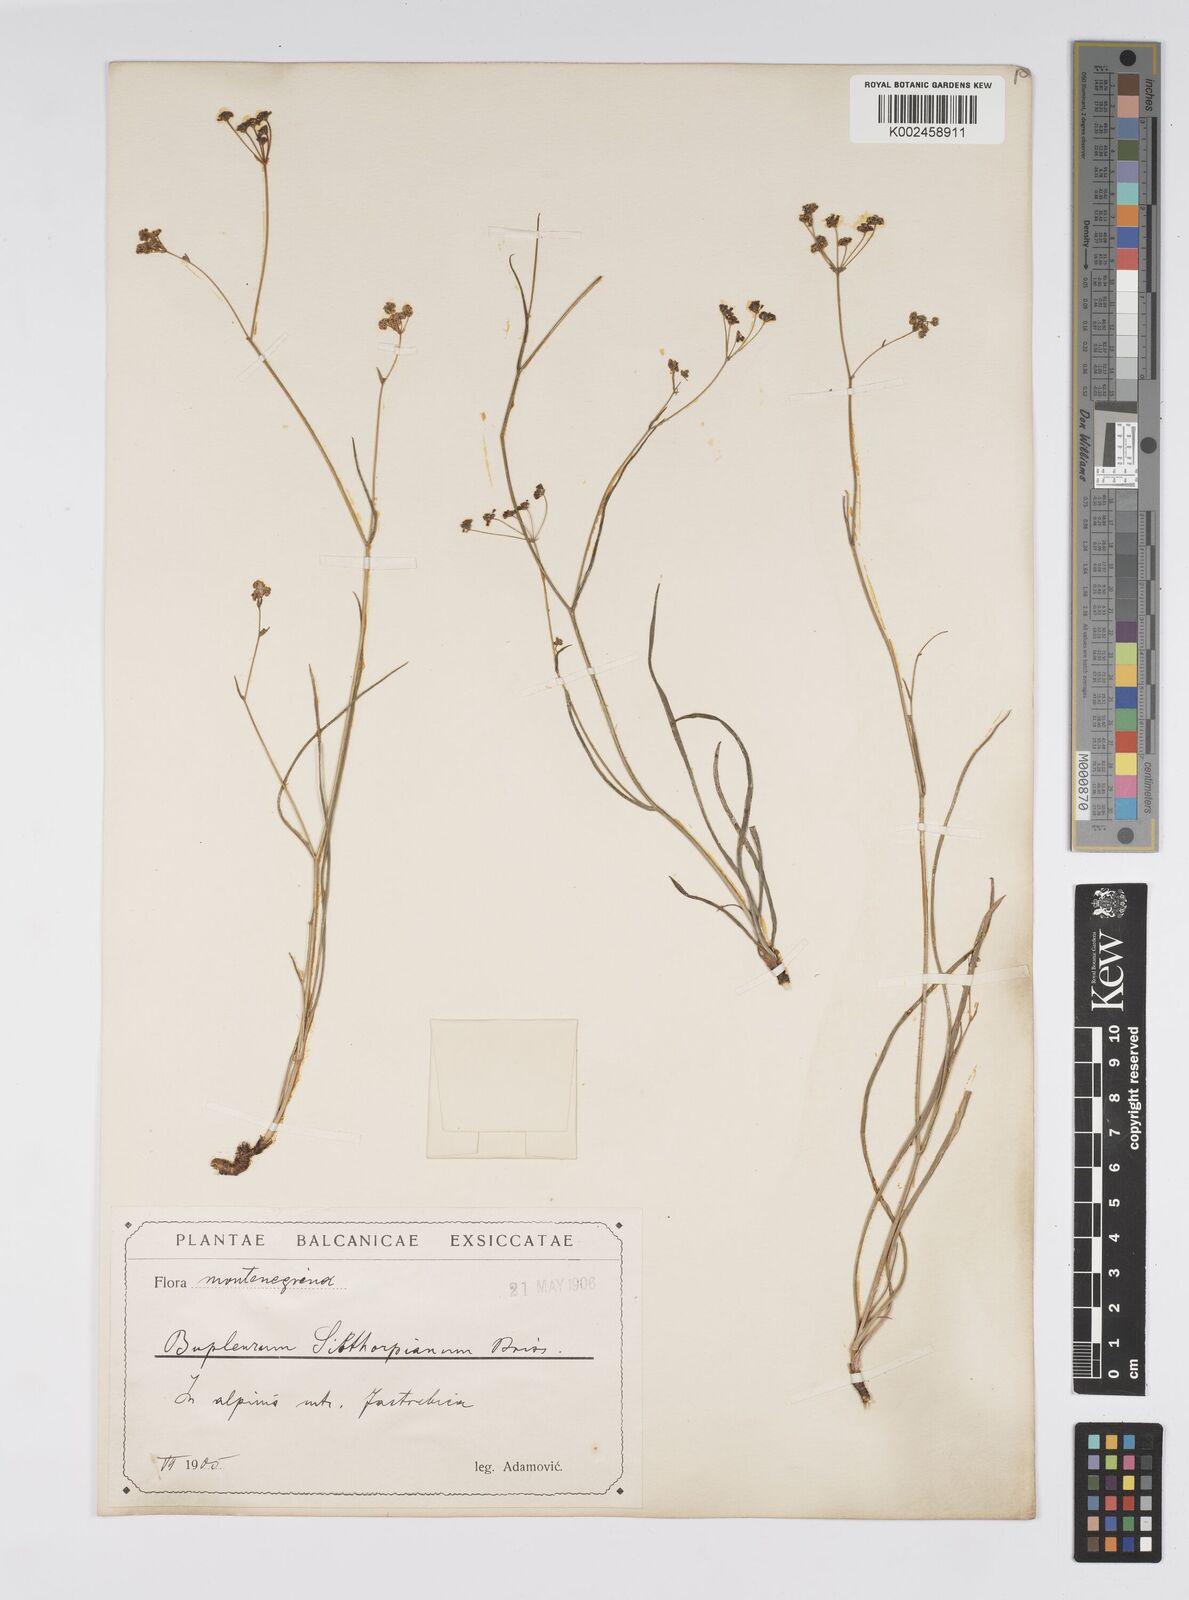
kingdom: Plantae
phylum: Tracheophyta
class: Magnoliopsida
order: Apiales
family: Apiaceae
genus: Bupleurum
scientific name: Bupleurum falcatum
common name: Sickle-leaved hare's-ear
